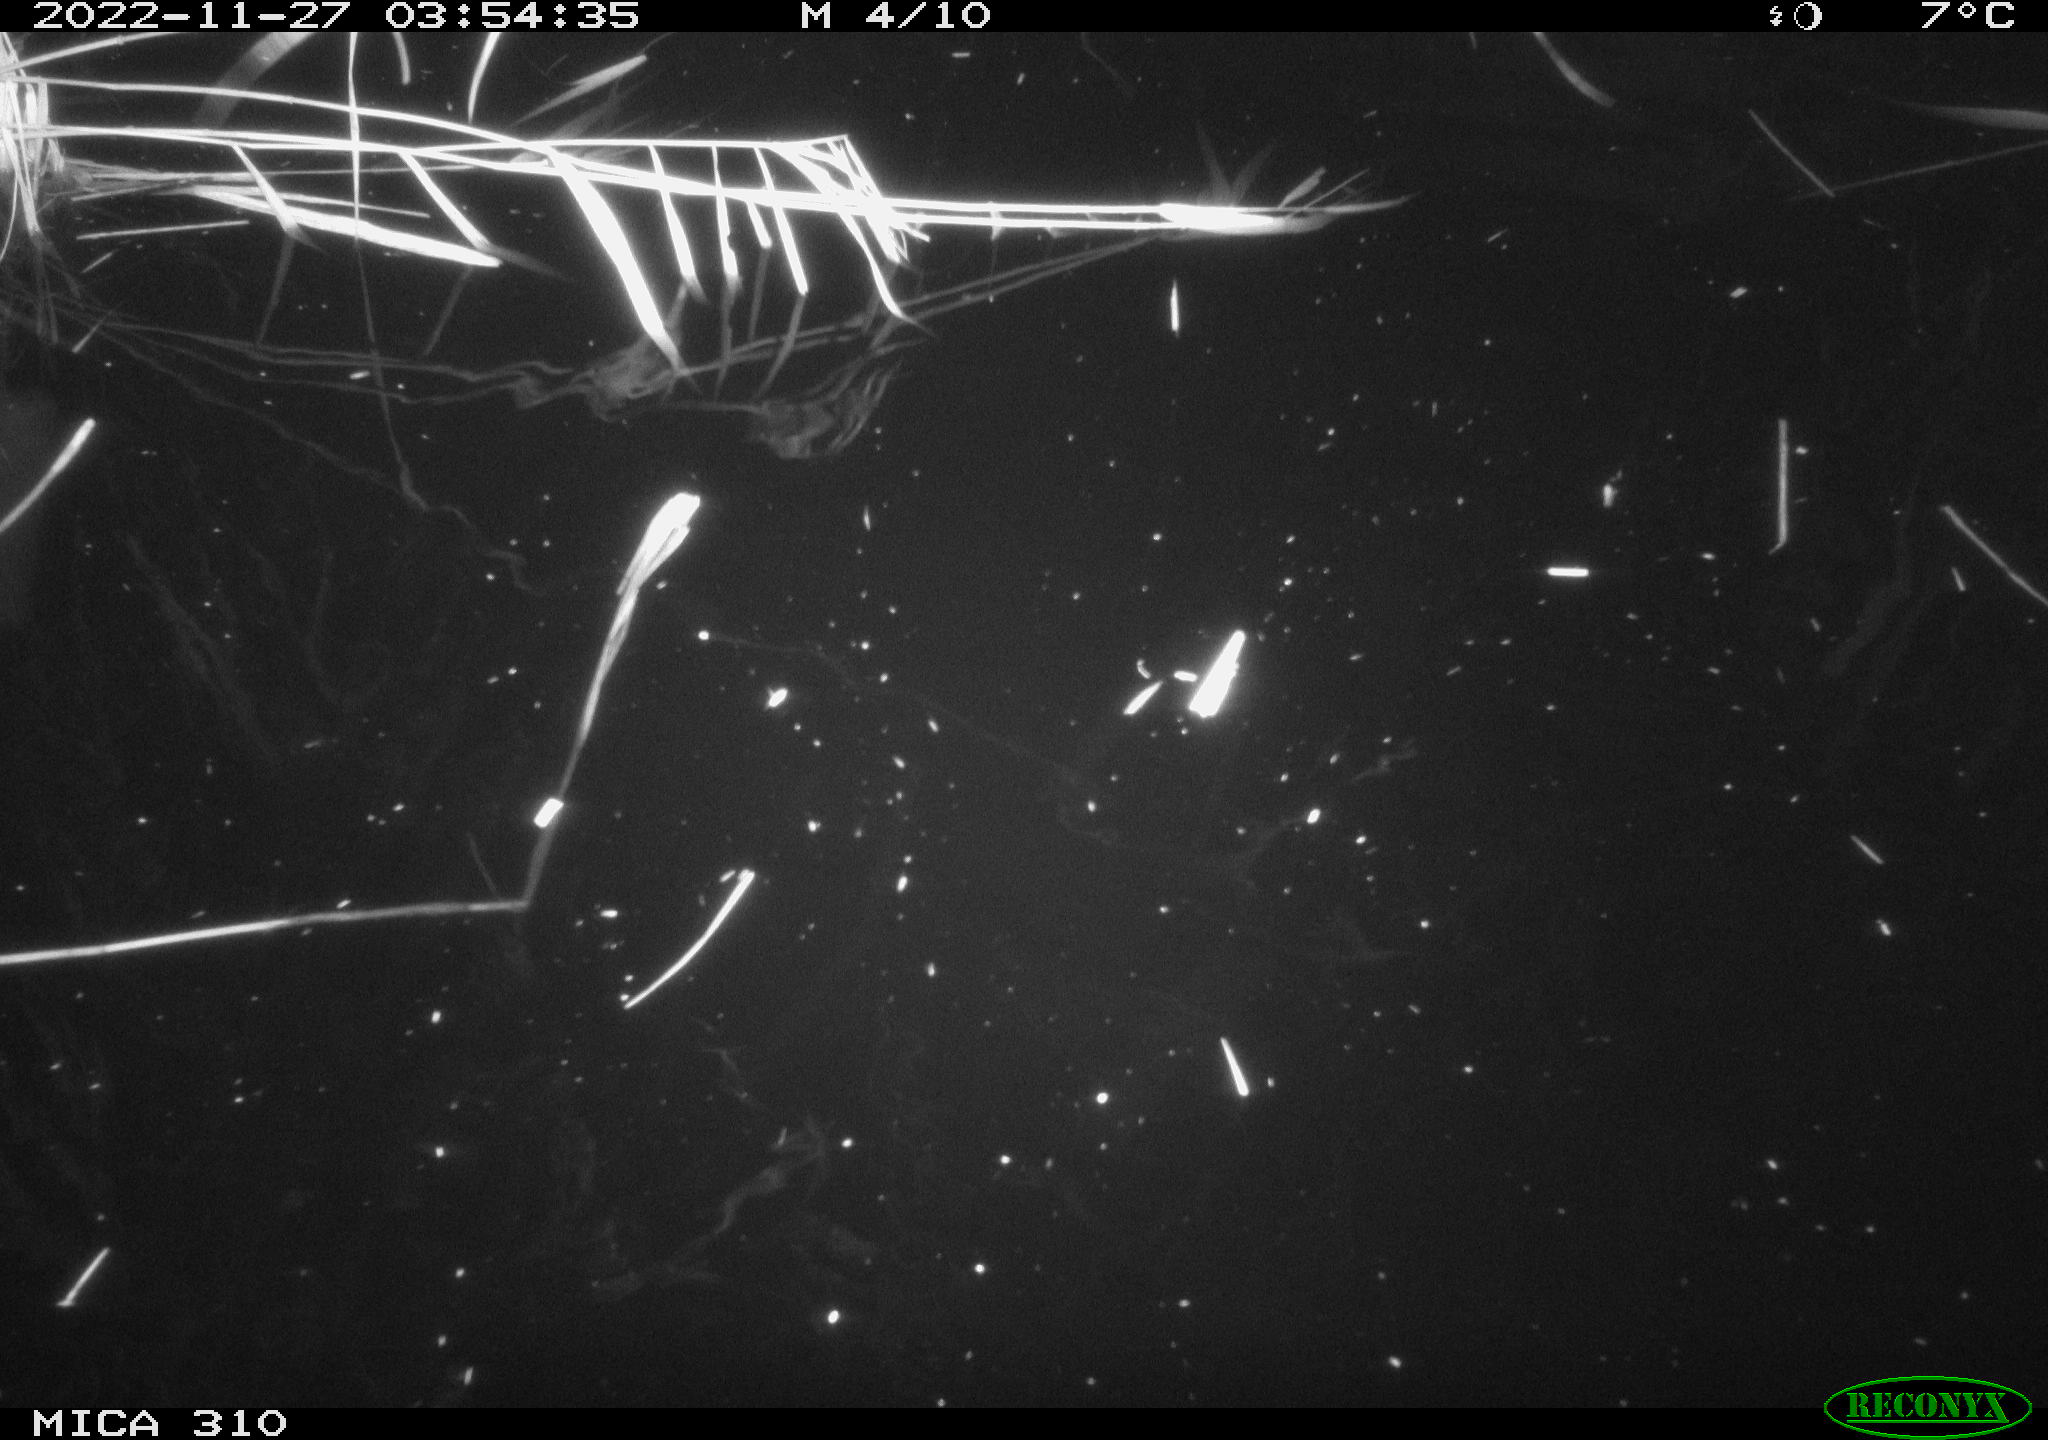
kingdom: Animalia
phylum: Chordata
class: Mammalia
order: Rodentia
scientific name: Rodentia
